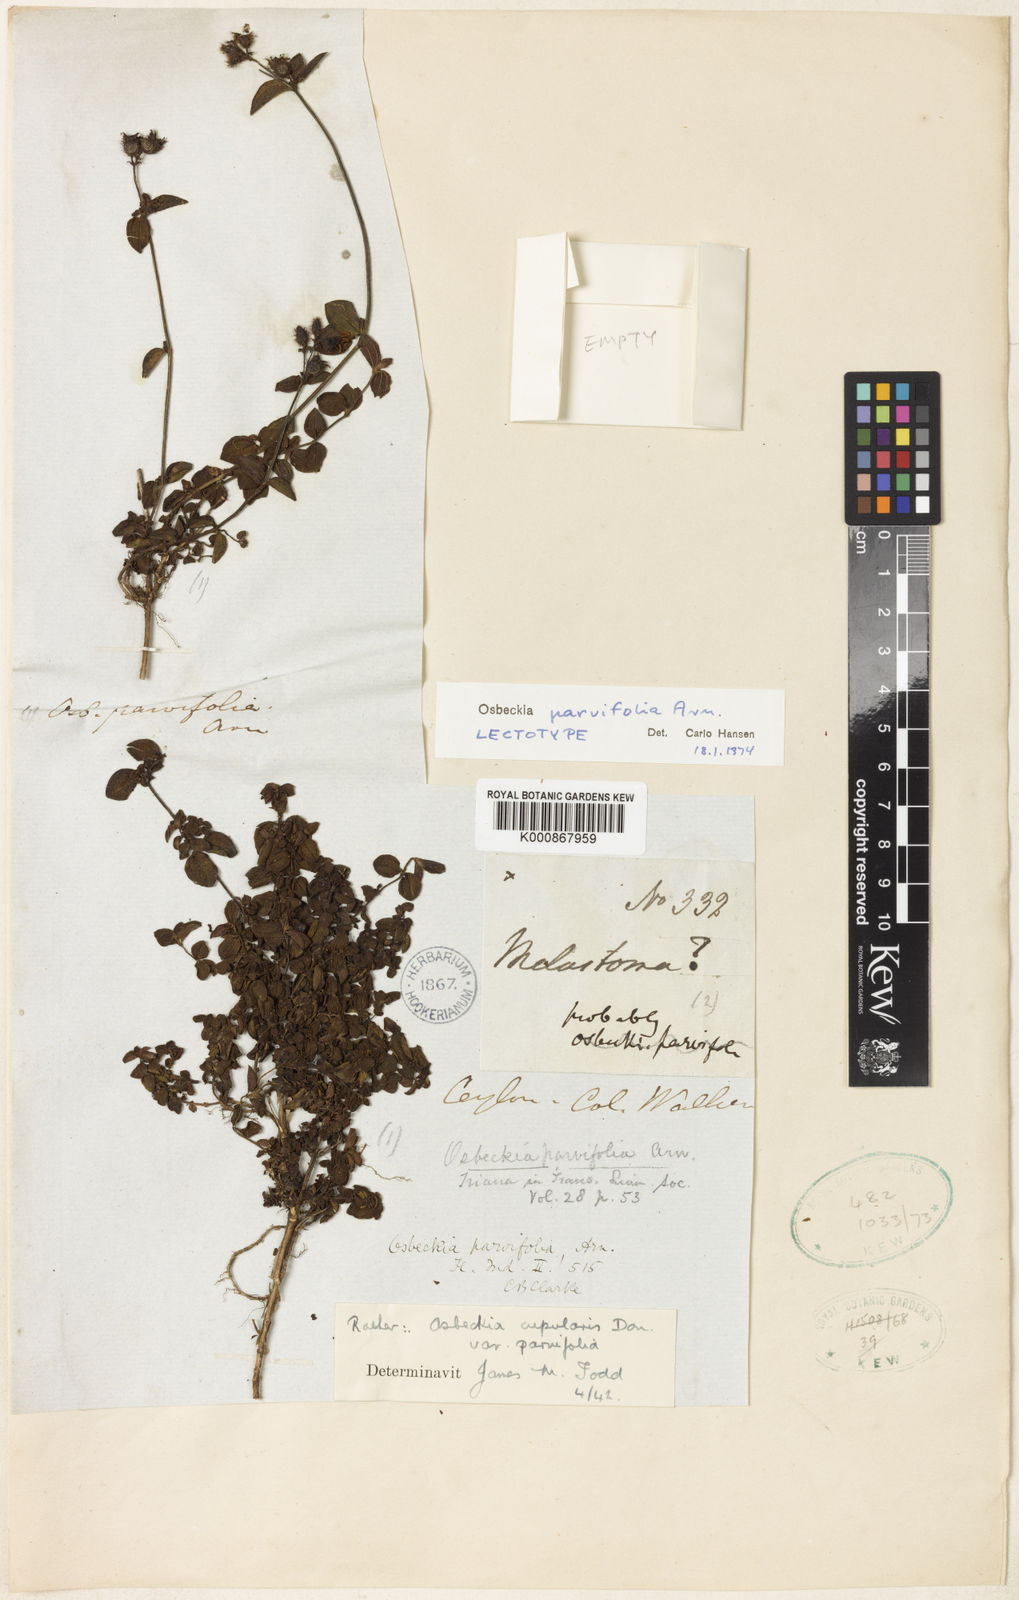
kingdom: Plantae
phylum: Tracheophyta
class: Magnoliopsida
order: Myrtales
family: Melastomataceae
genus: Osbeckia
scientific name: Osbeckia parvifolia
